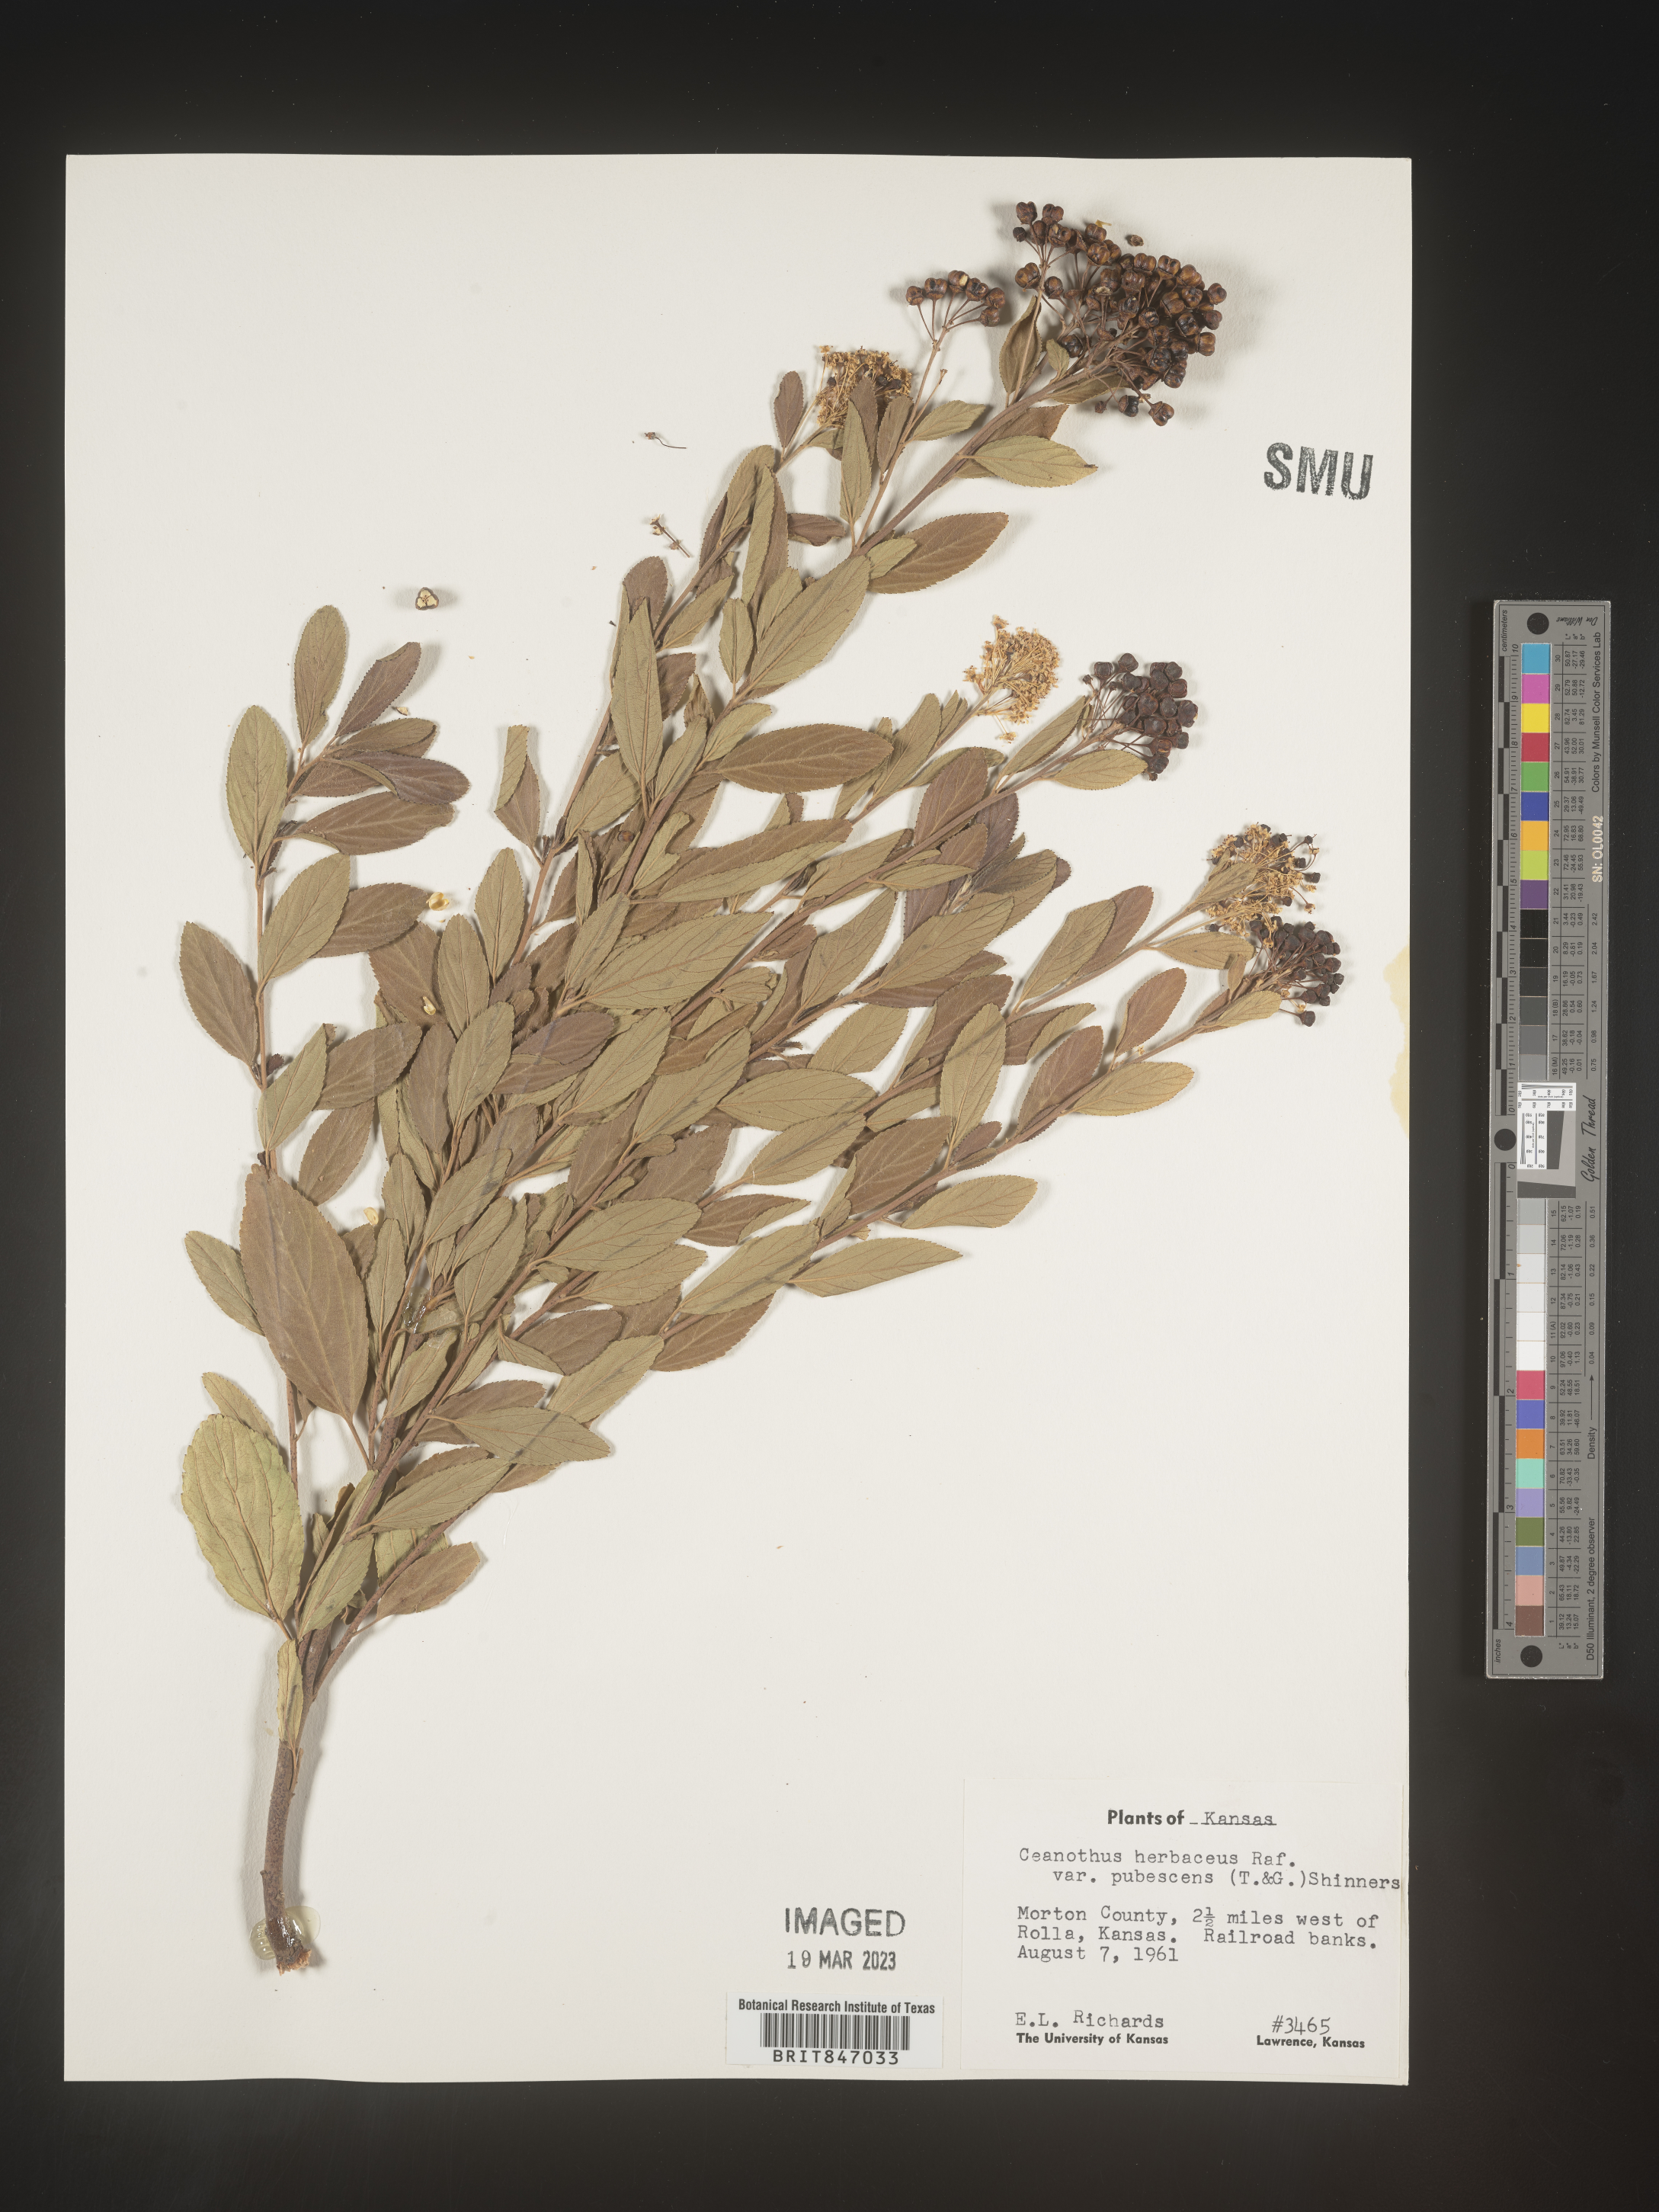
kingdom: Plantae
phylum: Tracheophyta
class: Magnoliopsida
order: Rosales
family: Rhamnaceae
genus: Ceanothus
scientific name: Ceanothus herbaceus
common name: Inland ceanothus
